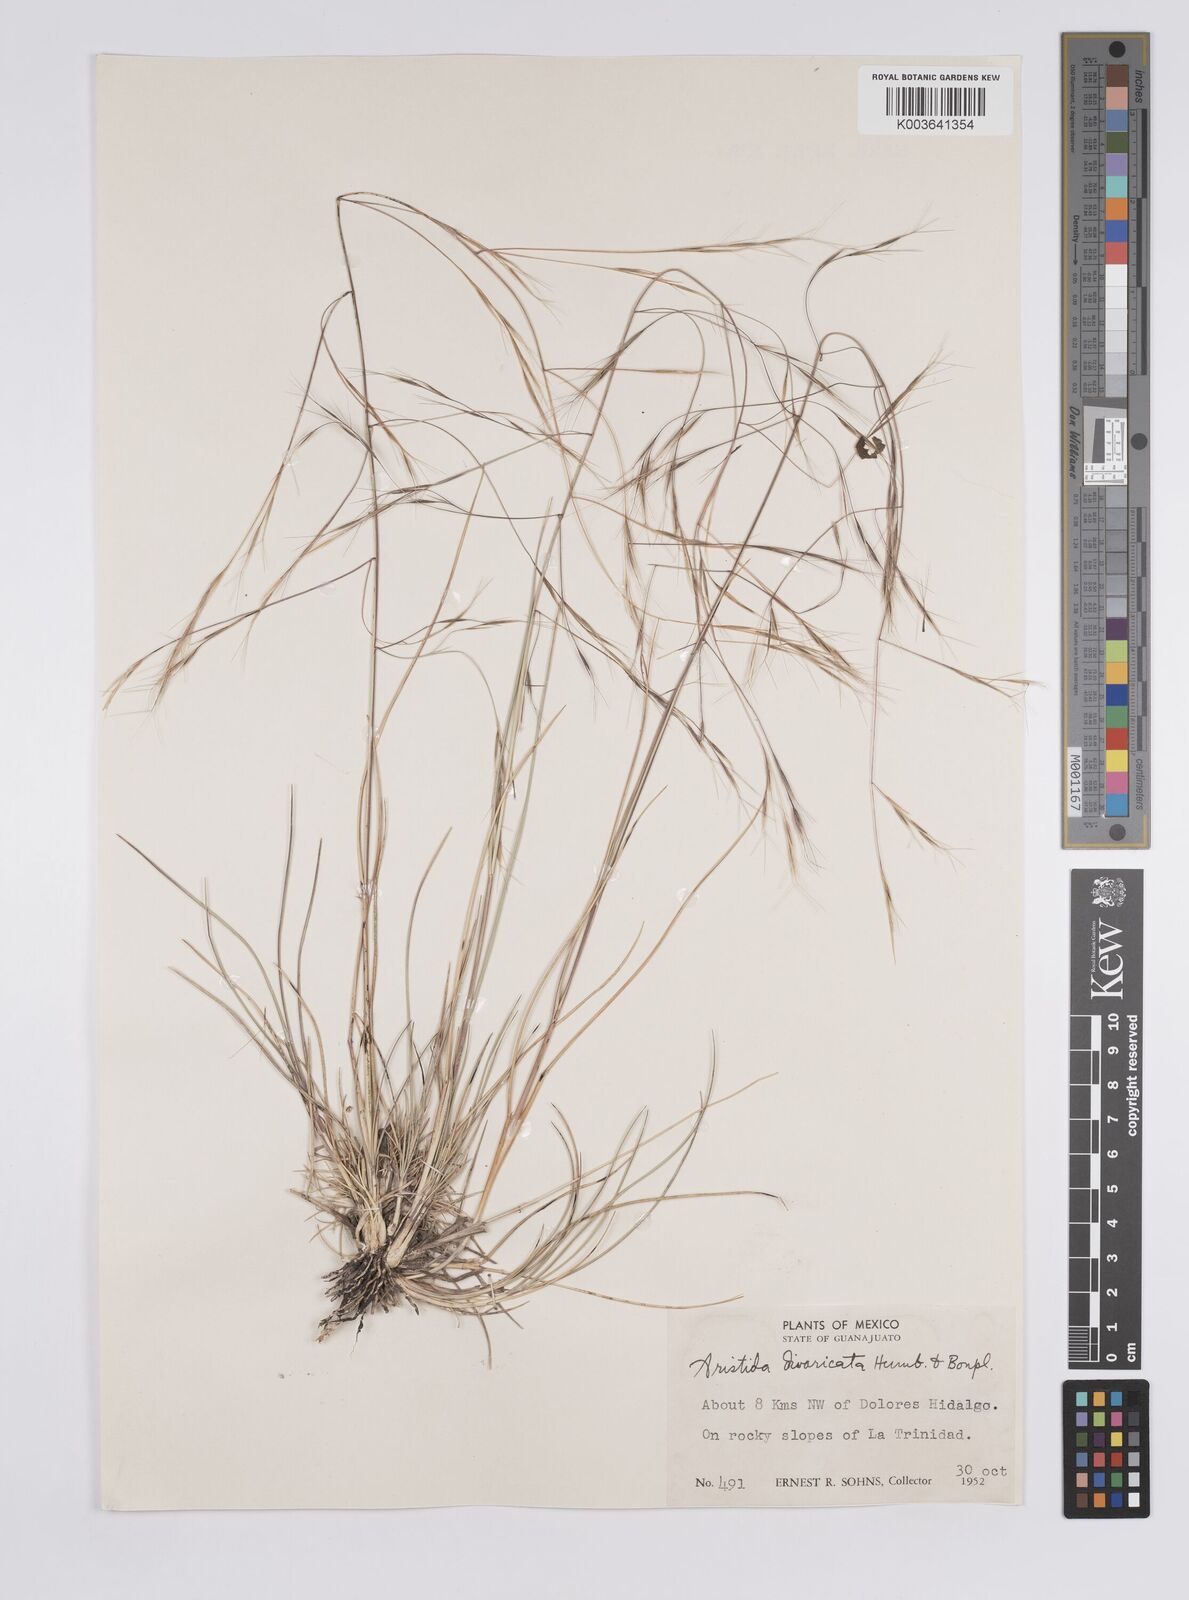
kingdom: Plantae
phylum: Tracheophyta
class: Liliopsida
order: Poales
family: Poaceae
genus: Aristida
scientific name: Aristida divaricata
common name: Poverty grass
